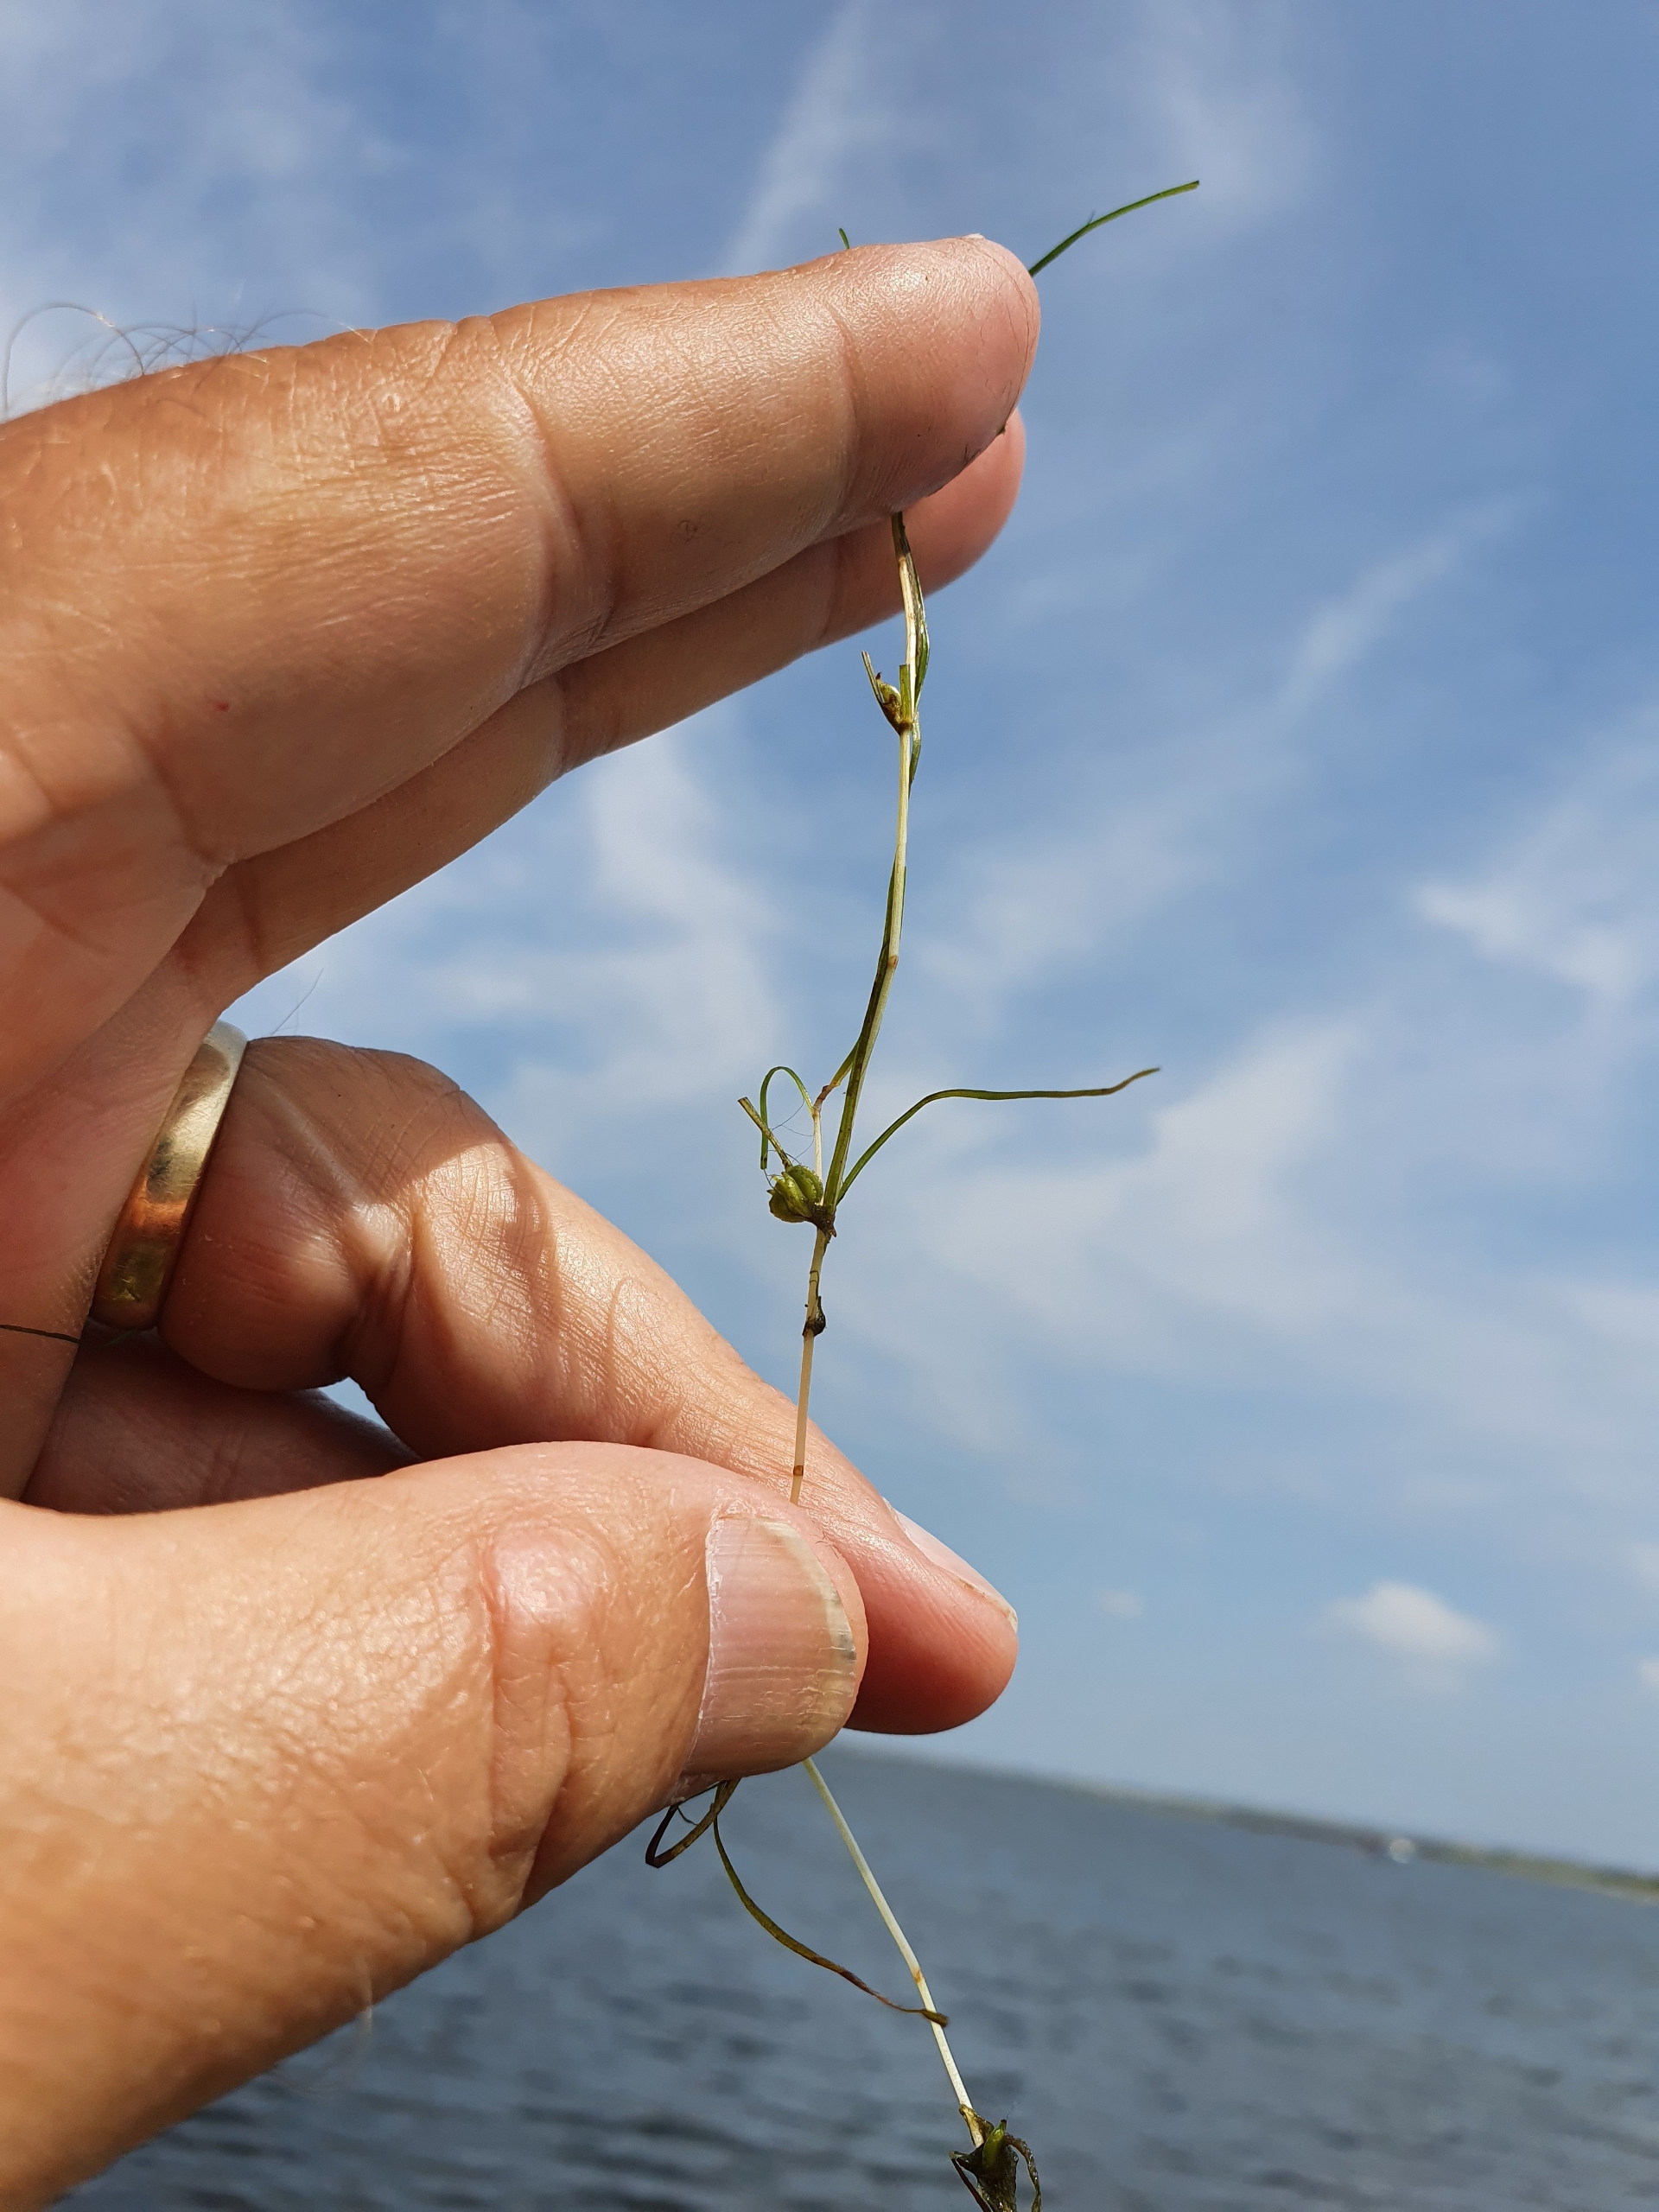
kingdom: Plantae
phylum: Tracheophyta
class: Liliopsida
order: Alismatales
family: Potamogetonaceae
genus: Zannichellia
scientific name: Zannichellia palustris
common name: Vandkrans
